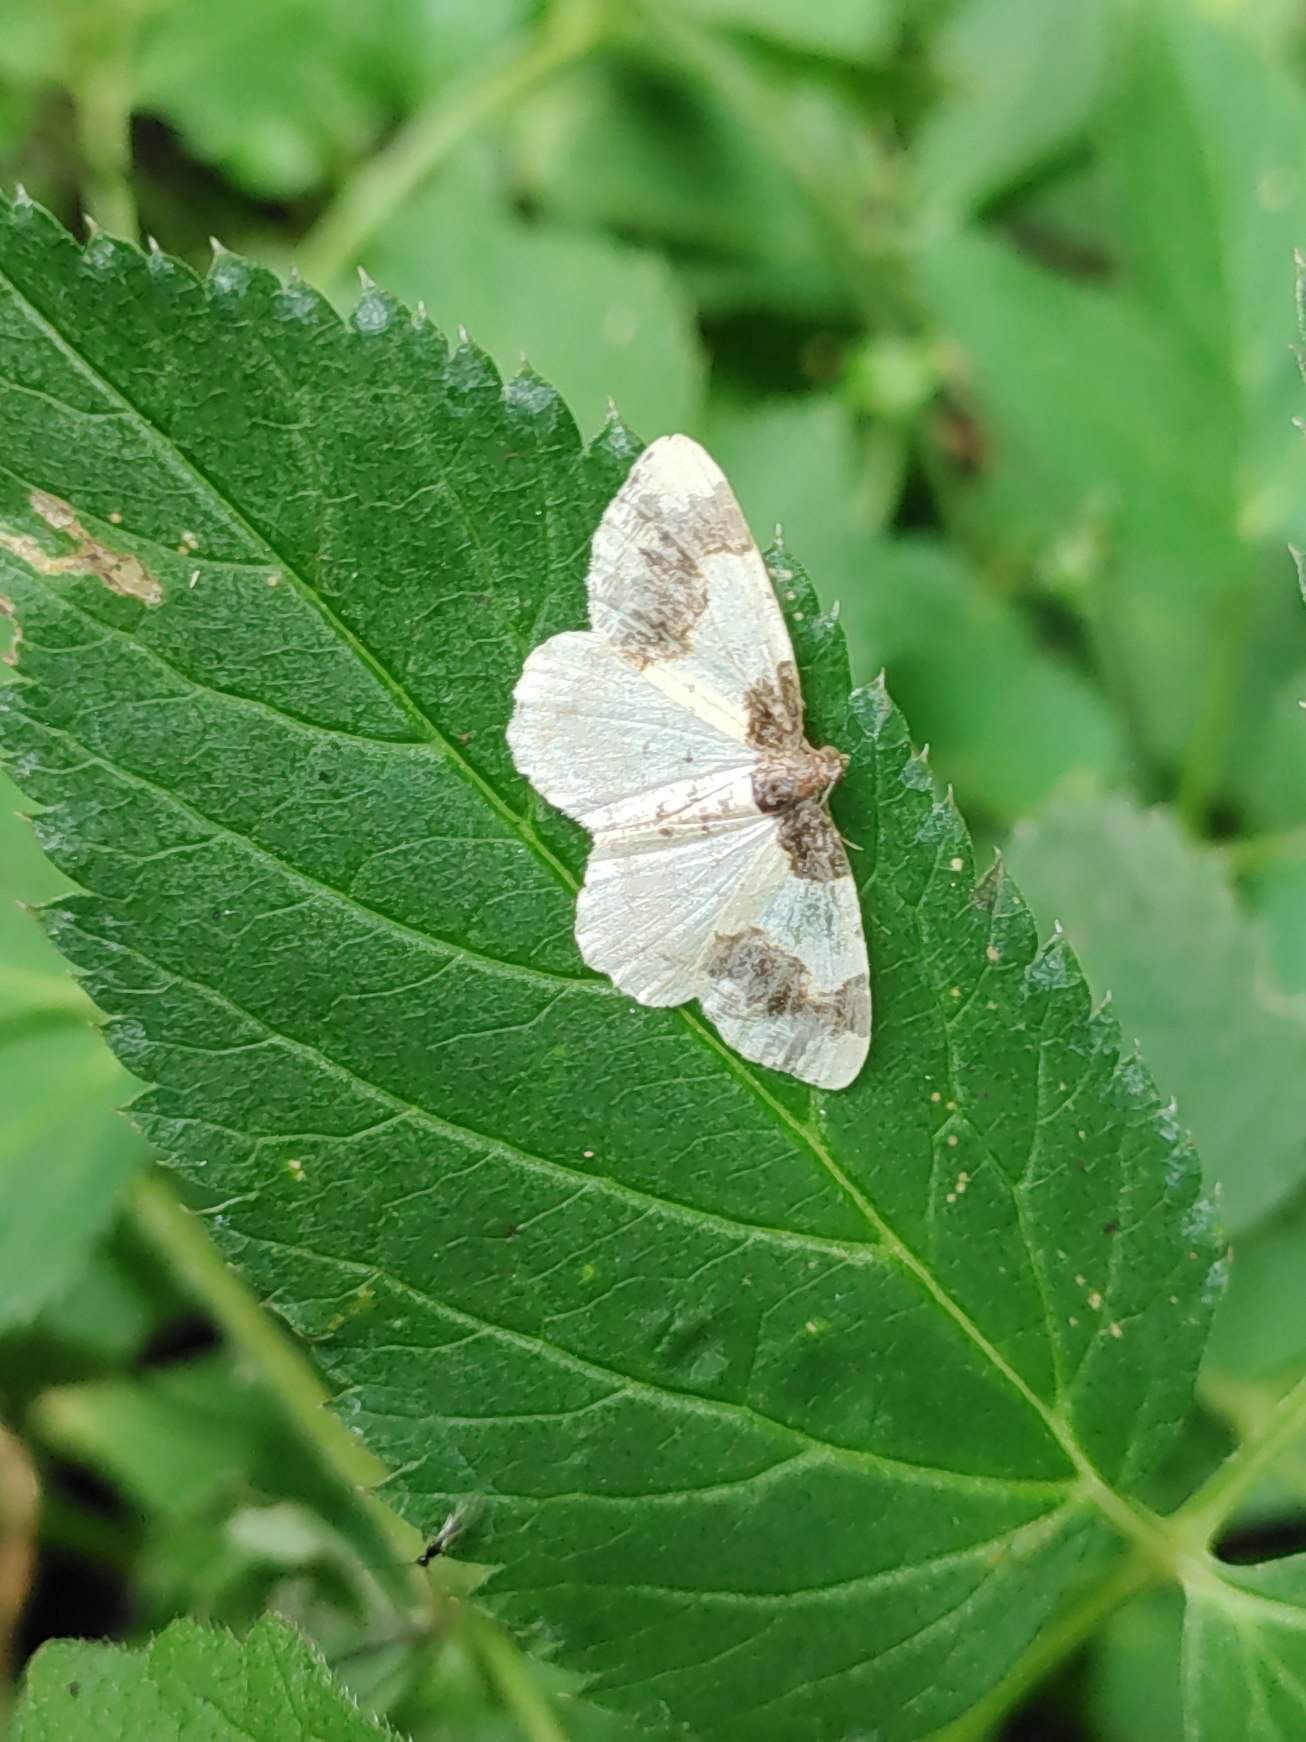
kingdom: Animalia
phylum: Arthropoda
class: Insecta
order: Lepidoptera
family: Geometridae
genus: Ligdia
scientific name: Ligdia adustata
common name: Benvedmåler
